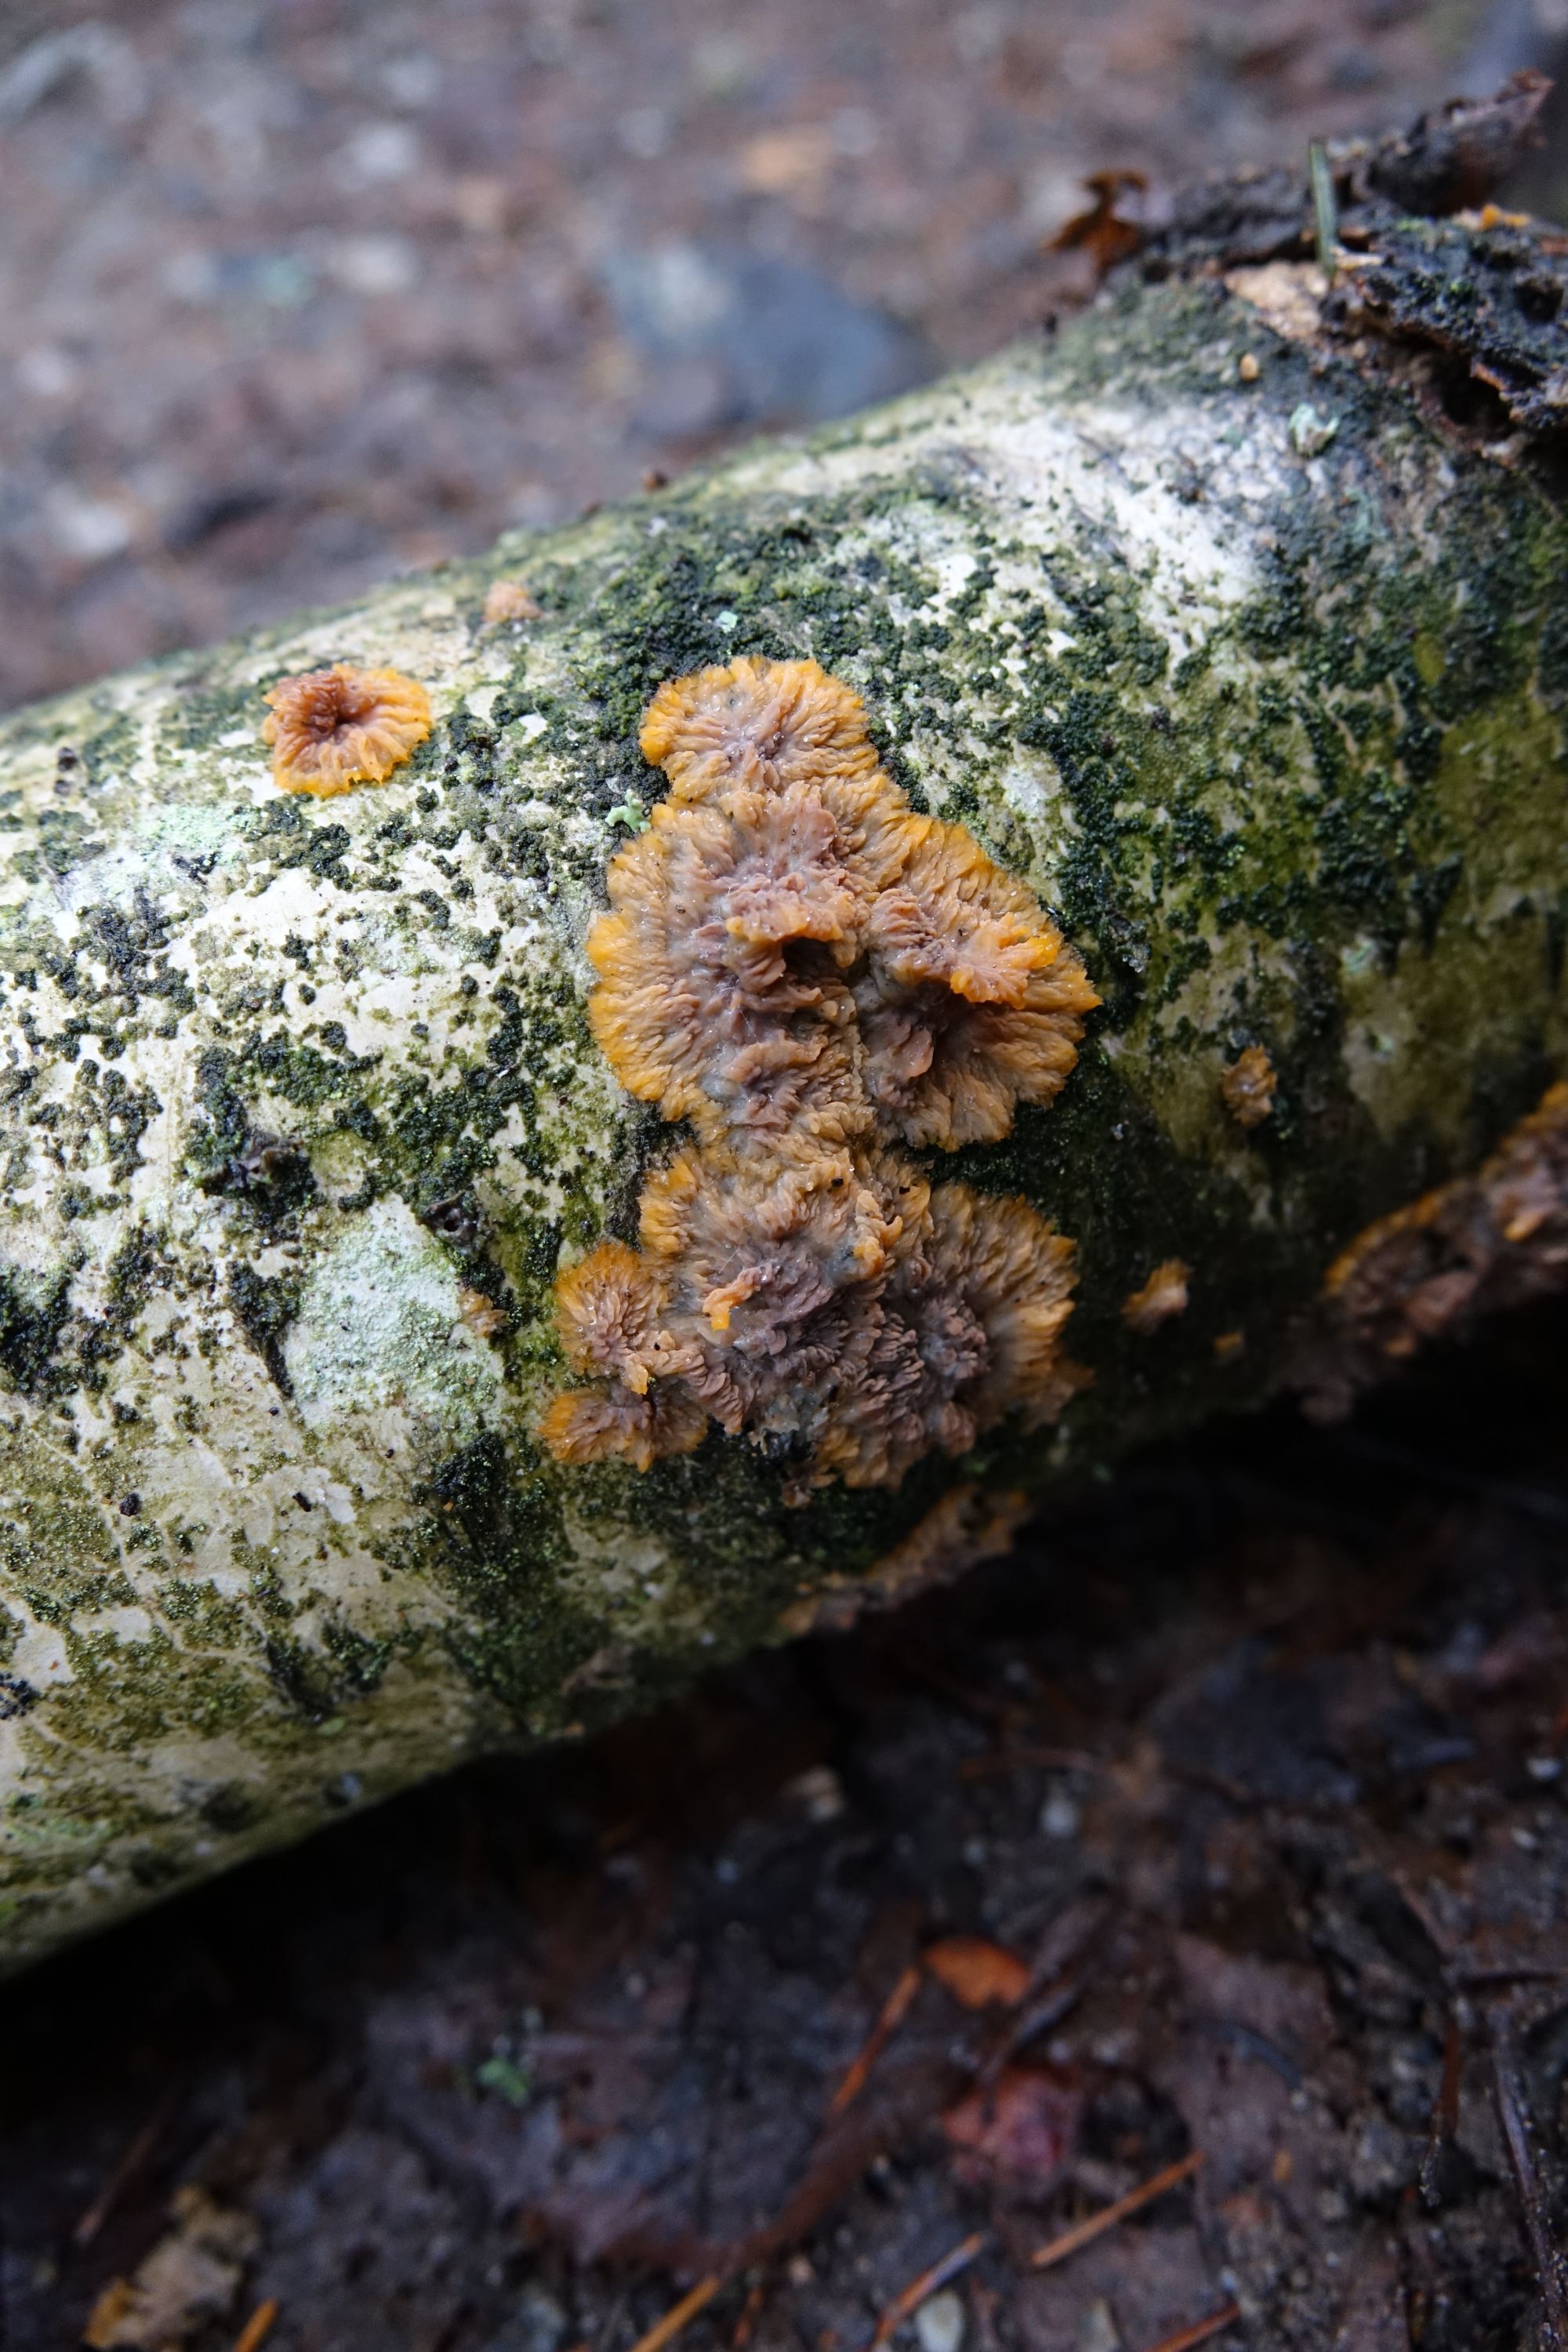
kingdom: Fungi
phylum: Basidiomycota
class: Agaricomycetes
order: Polyporales
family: Meruliaceae
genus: Phlebia
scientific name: Phlebia radiata
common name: Wrinkled crust
